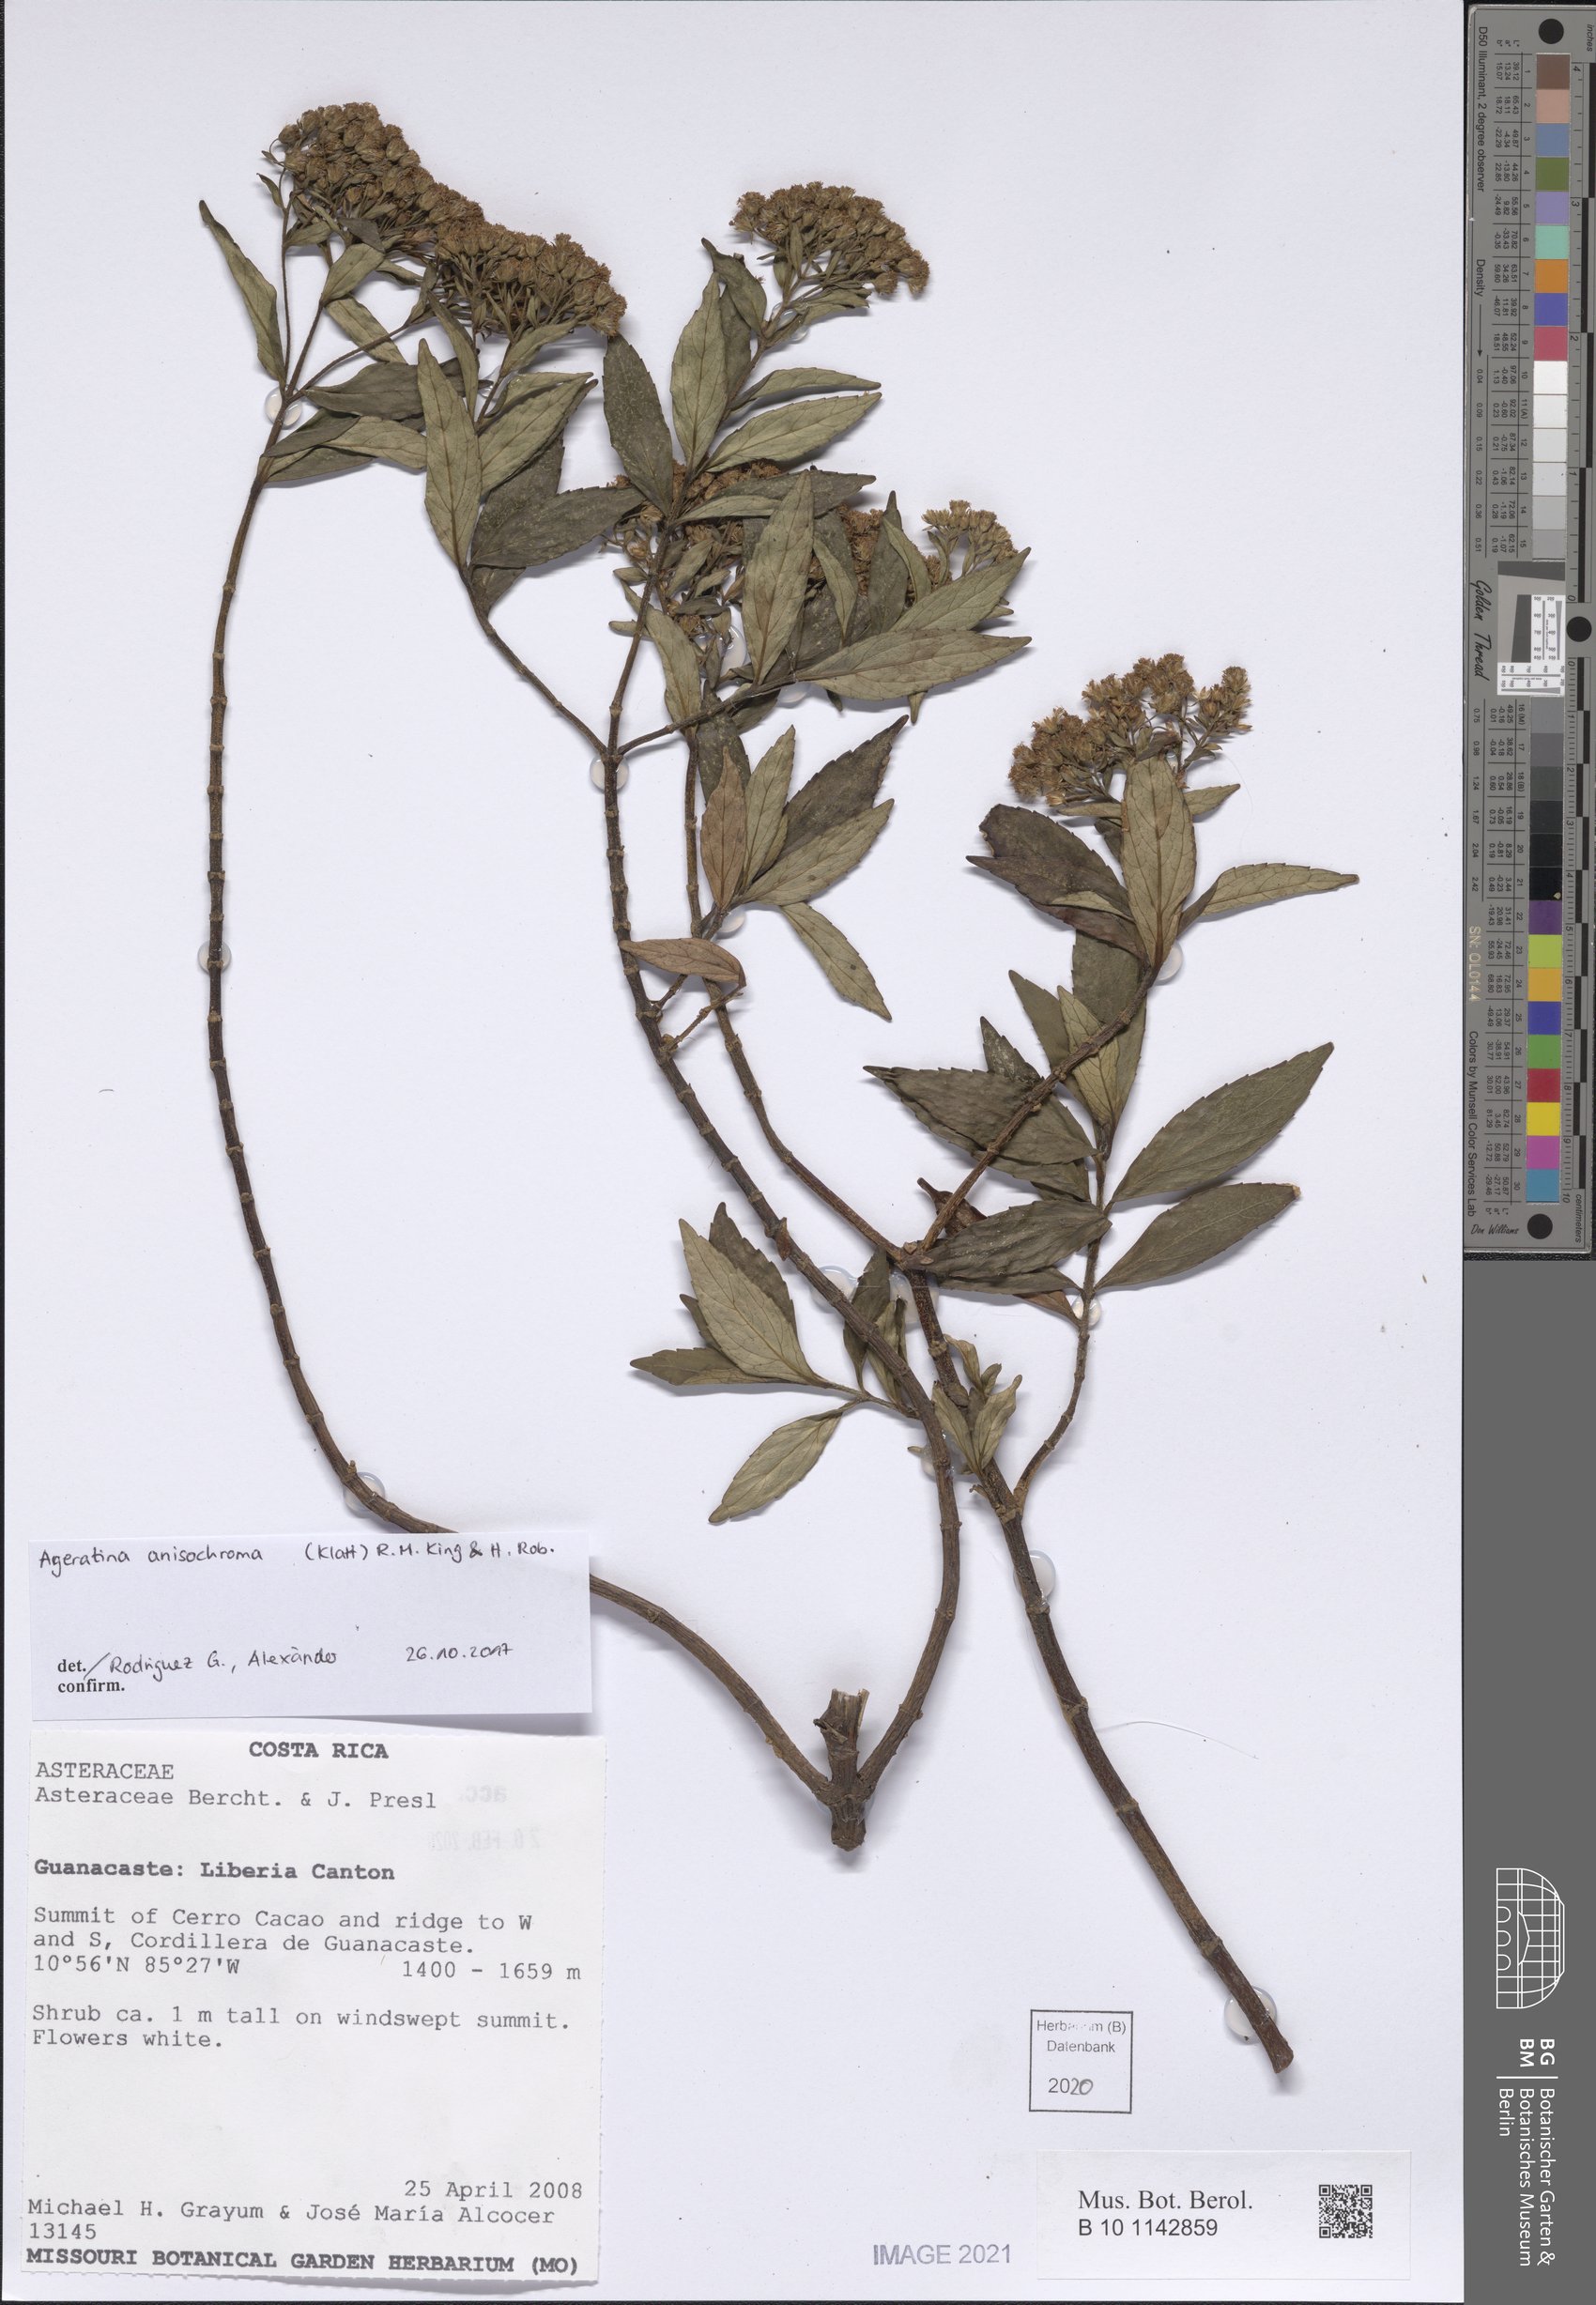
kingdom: Plantae
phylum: Tracheophyta
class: Liliopsida
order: Asparagales
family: Orchidaceae
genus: Epidendrum
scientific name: Epidendrum
